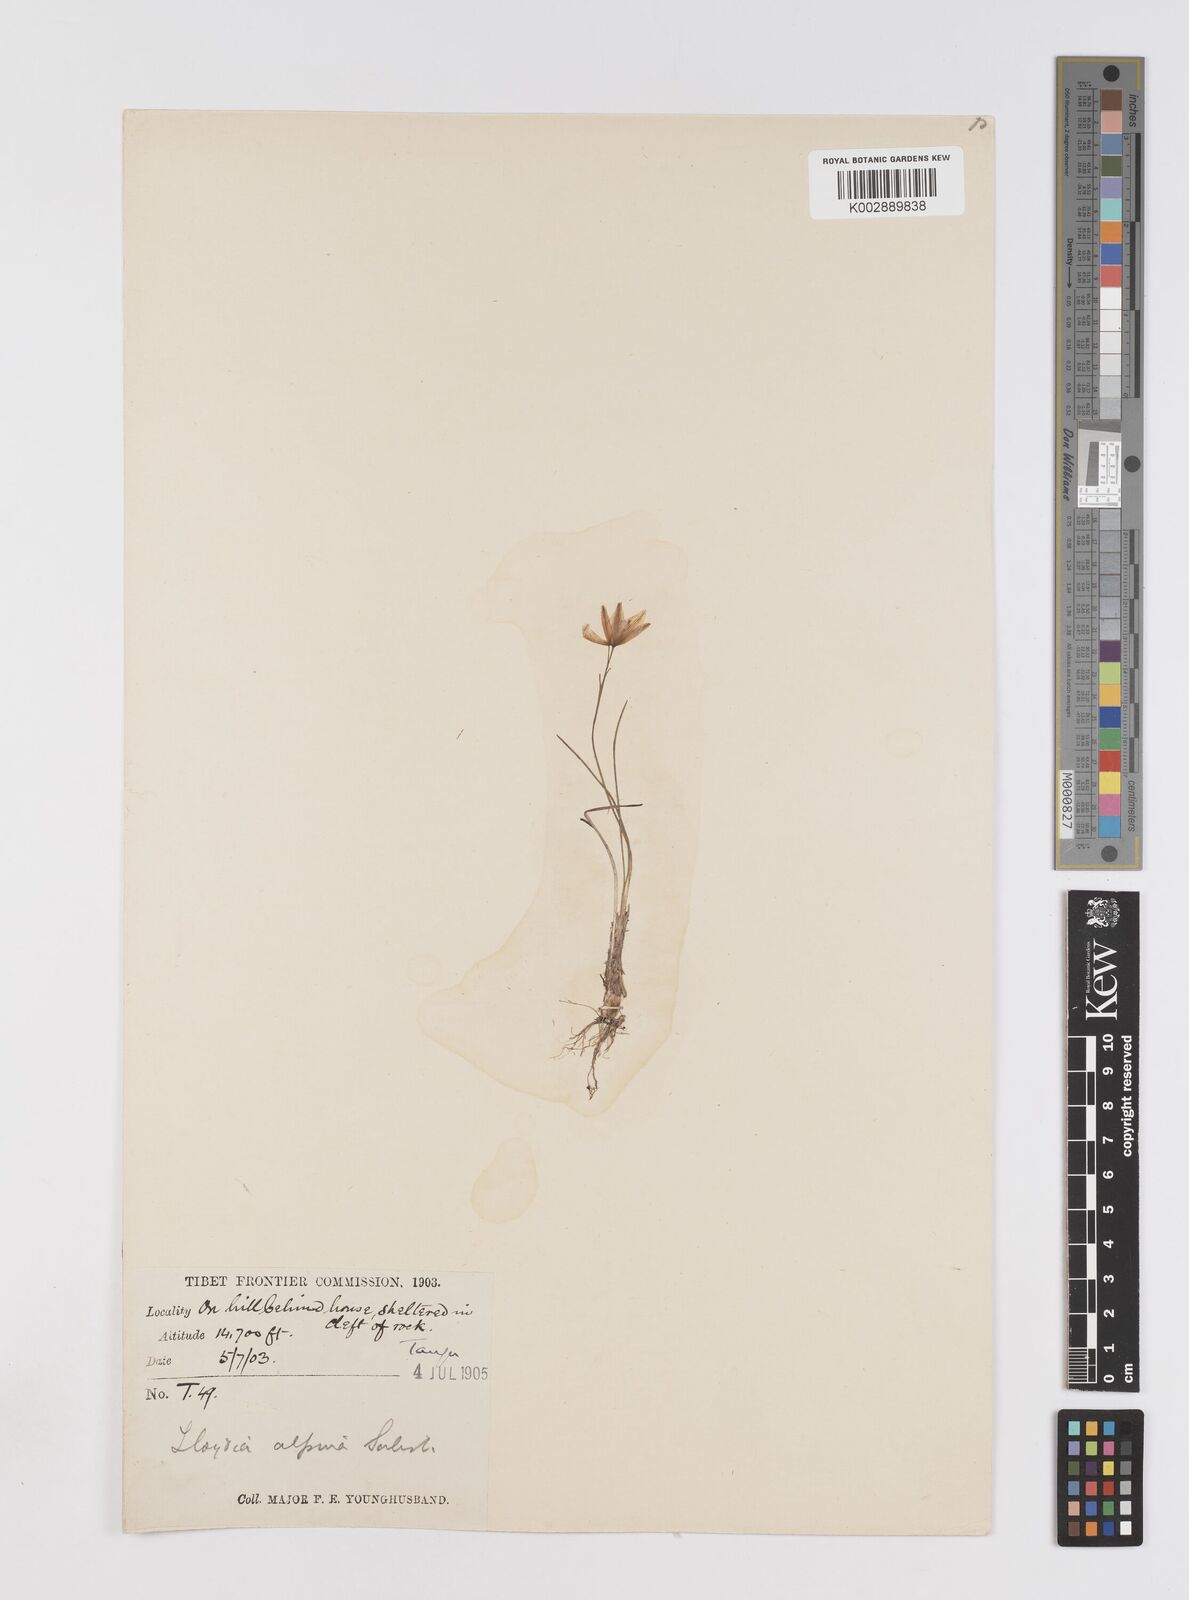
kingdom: Plantae
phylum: Tracheophyta
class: Liliopsida
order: Liliales
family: Liliaceae
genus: Gagea
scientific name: Gagea
